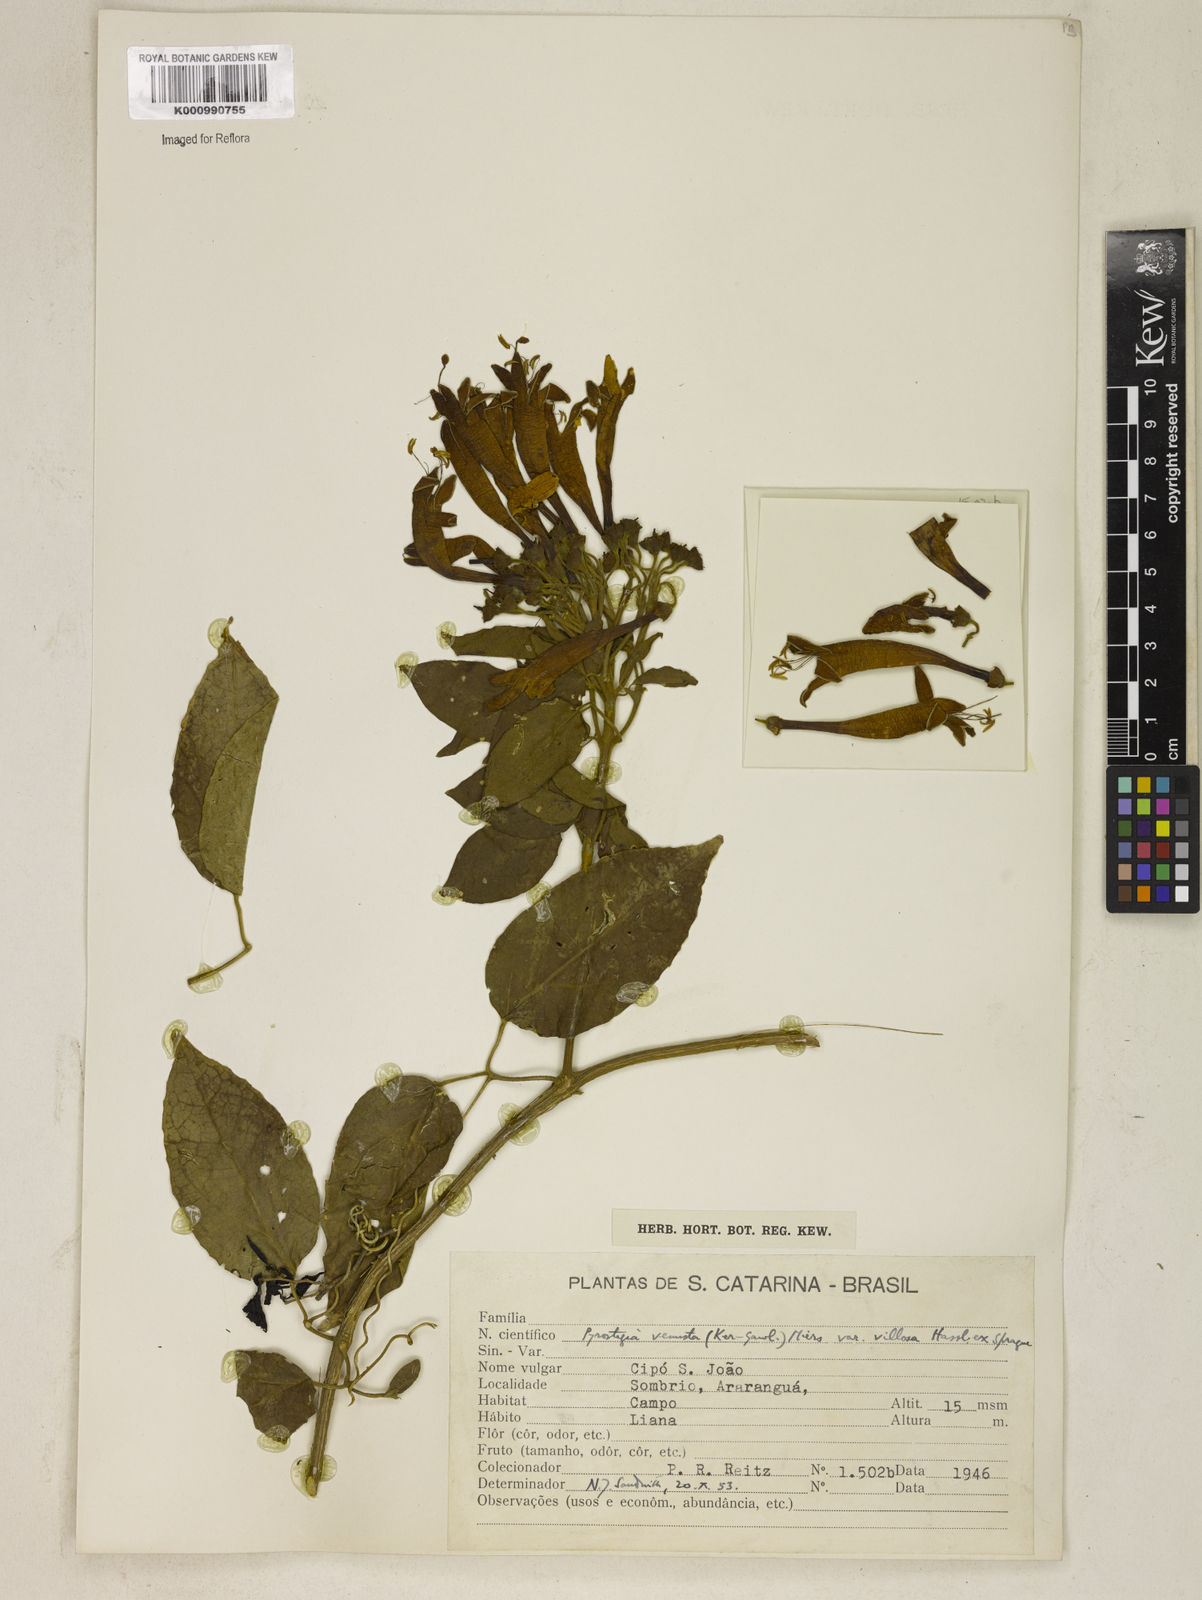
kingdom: Plantae
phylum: Tracheophyta
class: Magnoliopsida
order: Lamiales
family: Bignoniaceae
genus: Pyrostegia
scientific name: Pyrostegia venusta
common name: Flamevine
